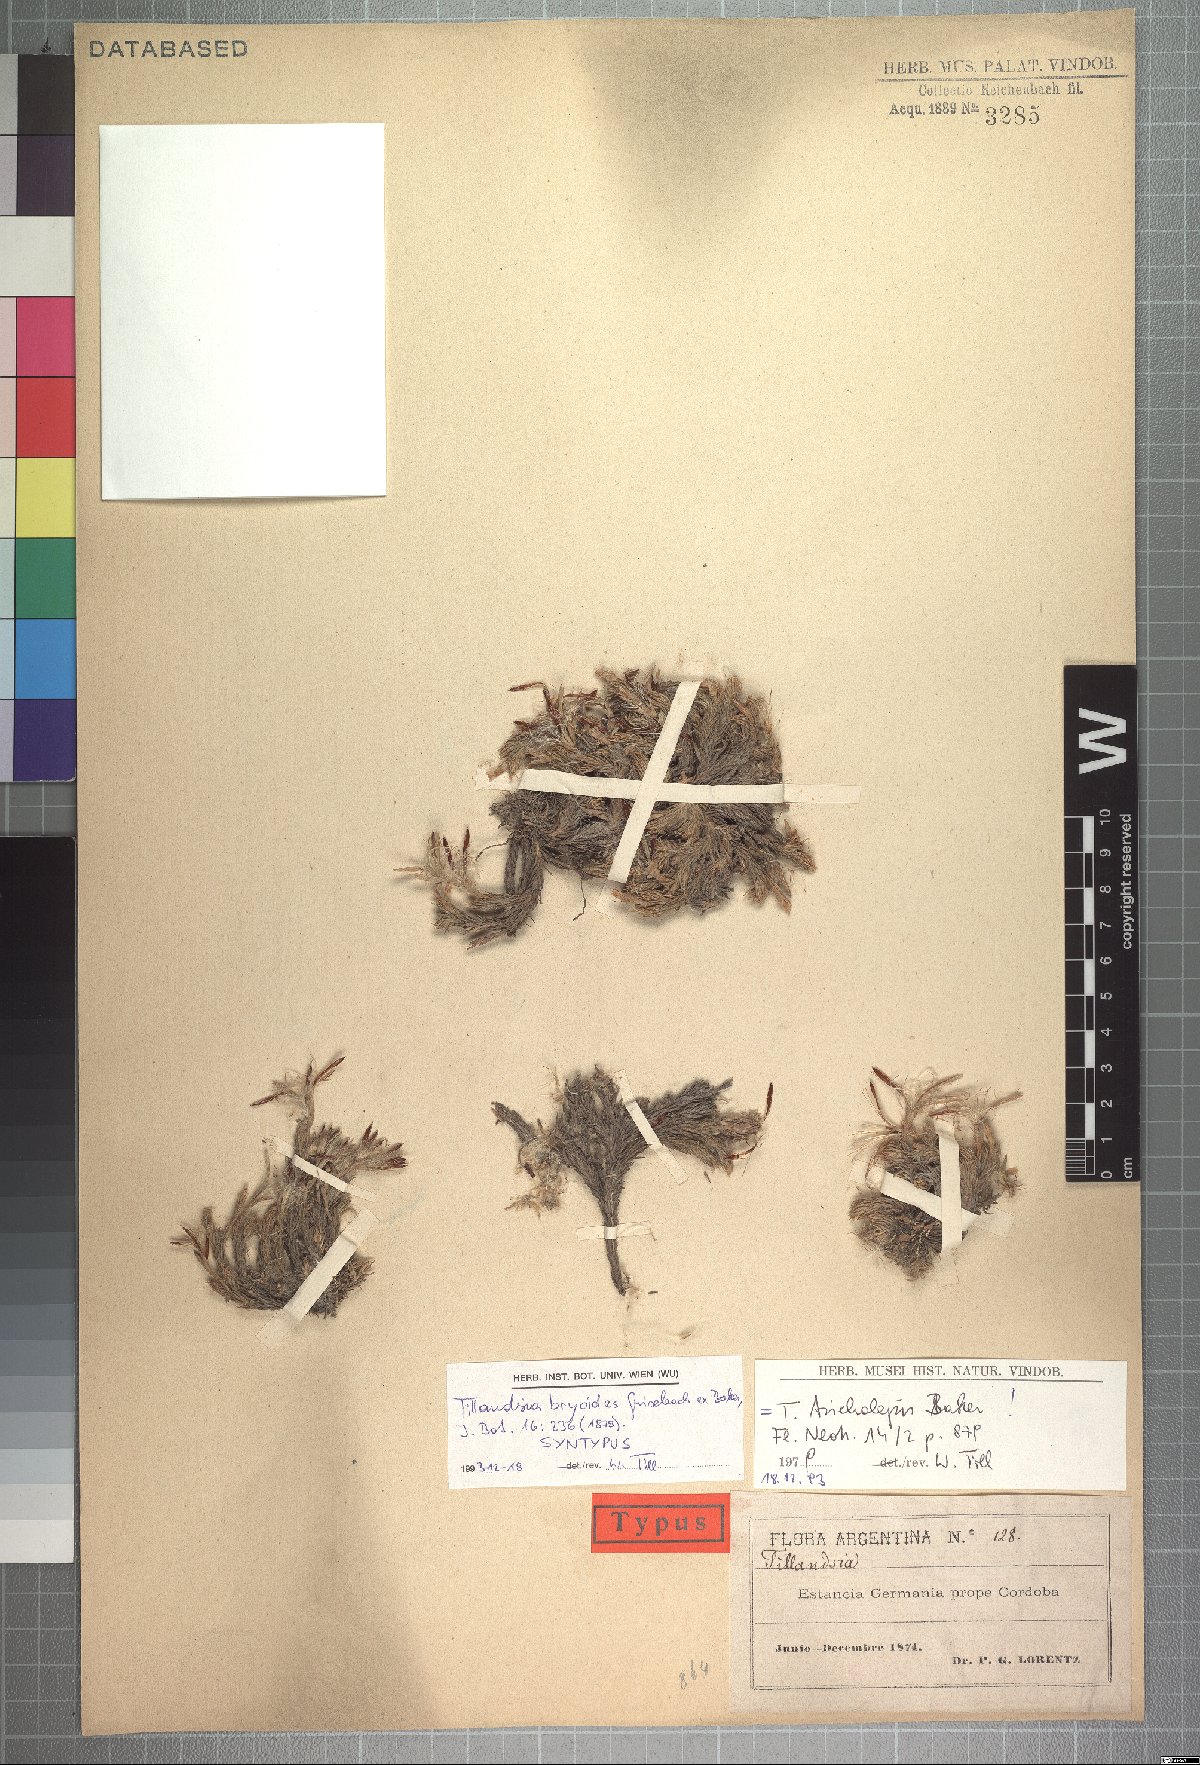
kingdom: Plantae
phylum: Tracheophyta
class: Liliopsida
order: Poales
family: Bromeliaceae
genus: Tillandsia
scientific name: Tillandsia tricholepis
